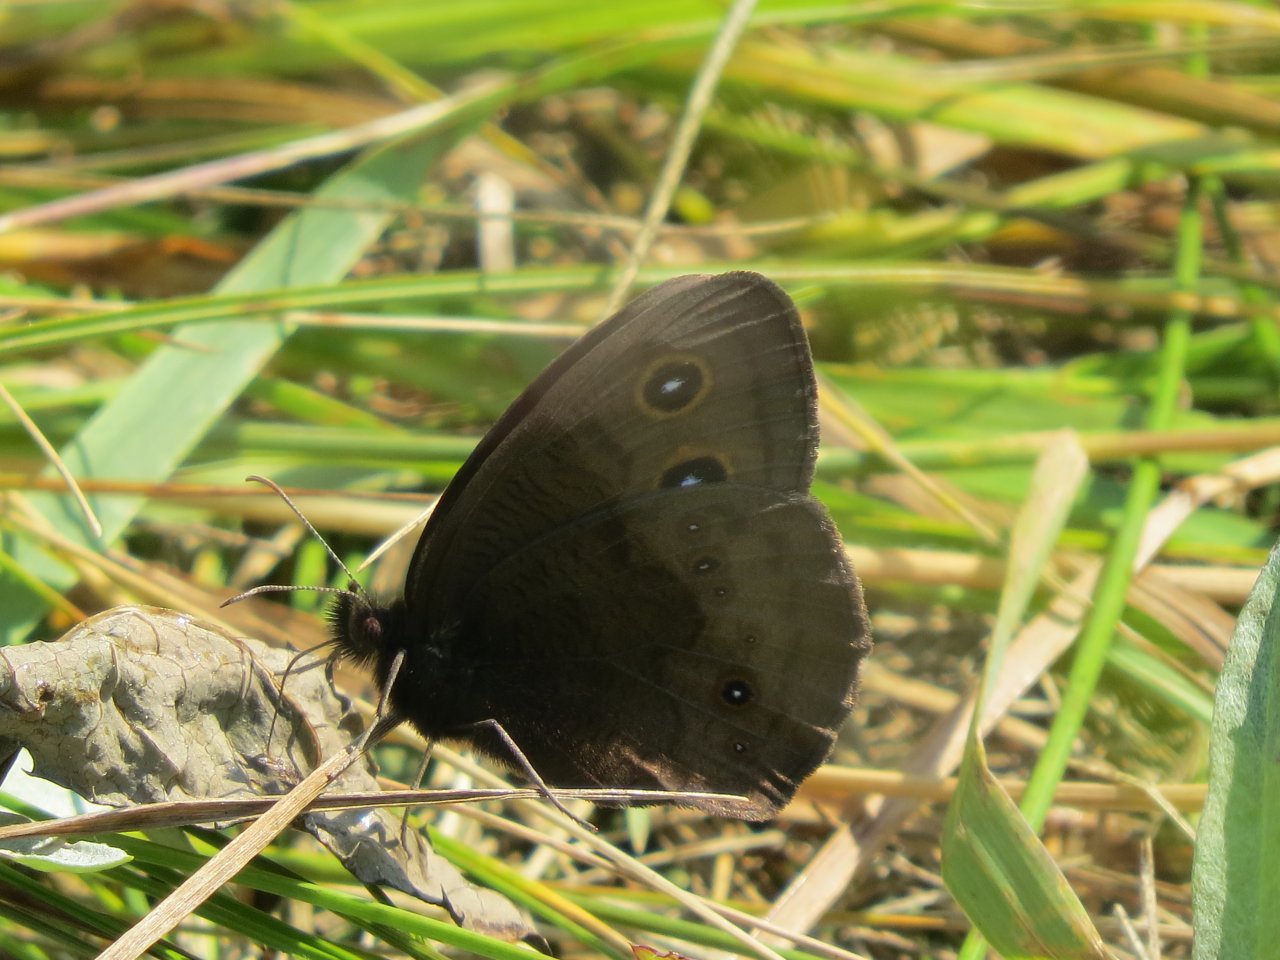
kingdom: Animalia
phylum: Arthropoda
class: Insecta
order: Lepidoptera
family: Nymphalidae
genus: Cercyonis
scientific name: Cercyonis pegala
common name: Common Wood-Nymph
